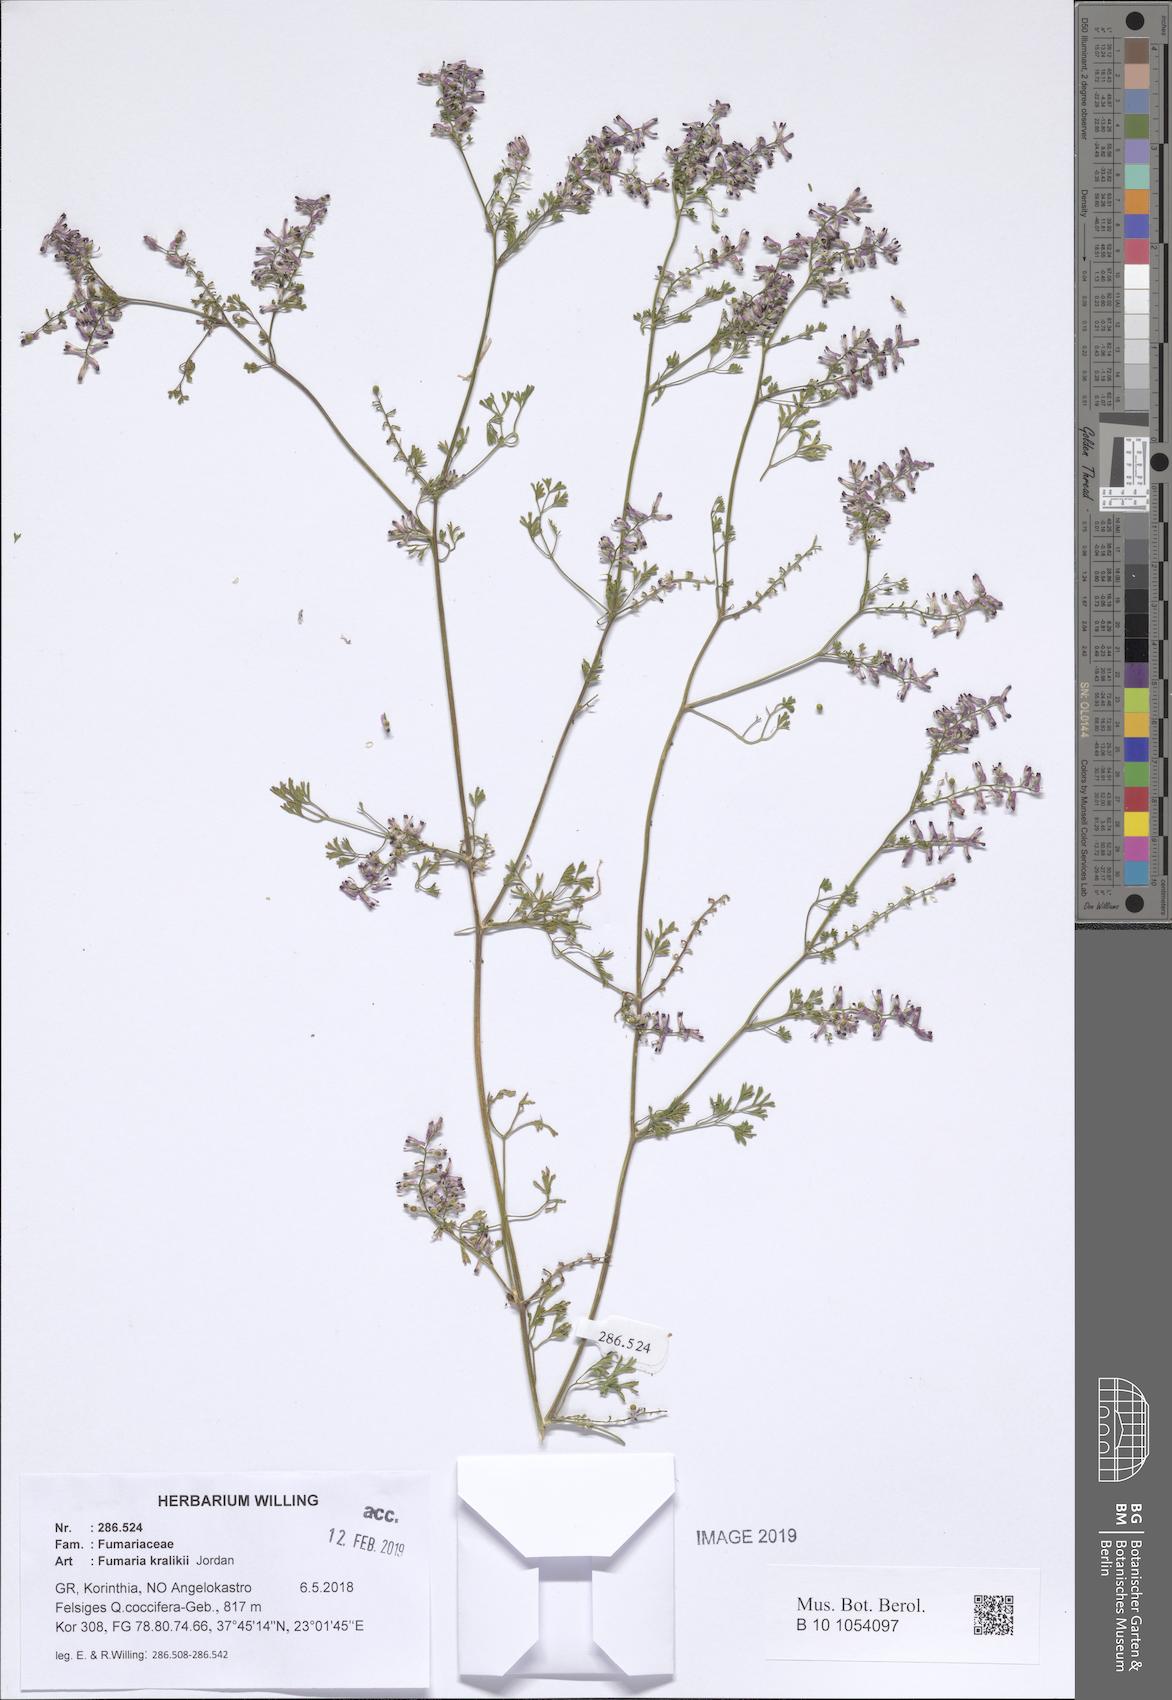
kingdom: Plantae
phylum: Tracheophyta
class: Magnoliopsida
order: Ranunculales
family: Papaveraceae
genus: Fumaria
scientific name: Fumaria kralikii
